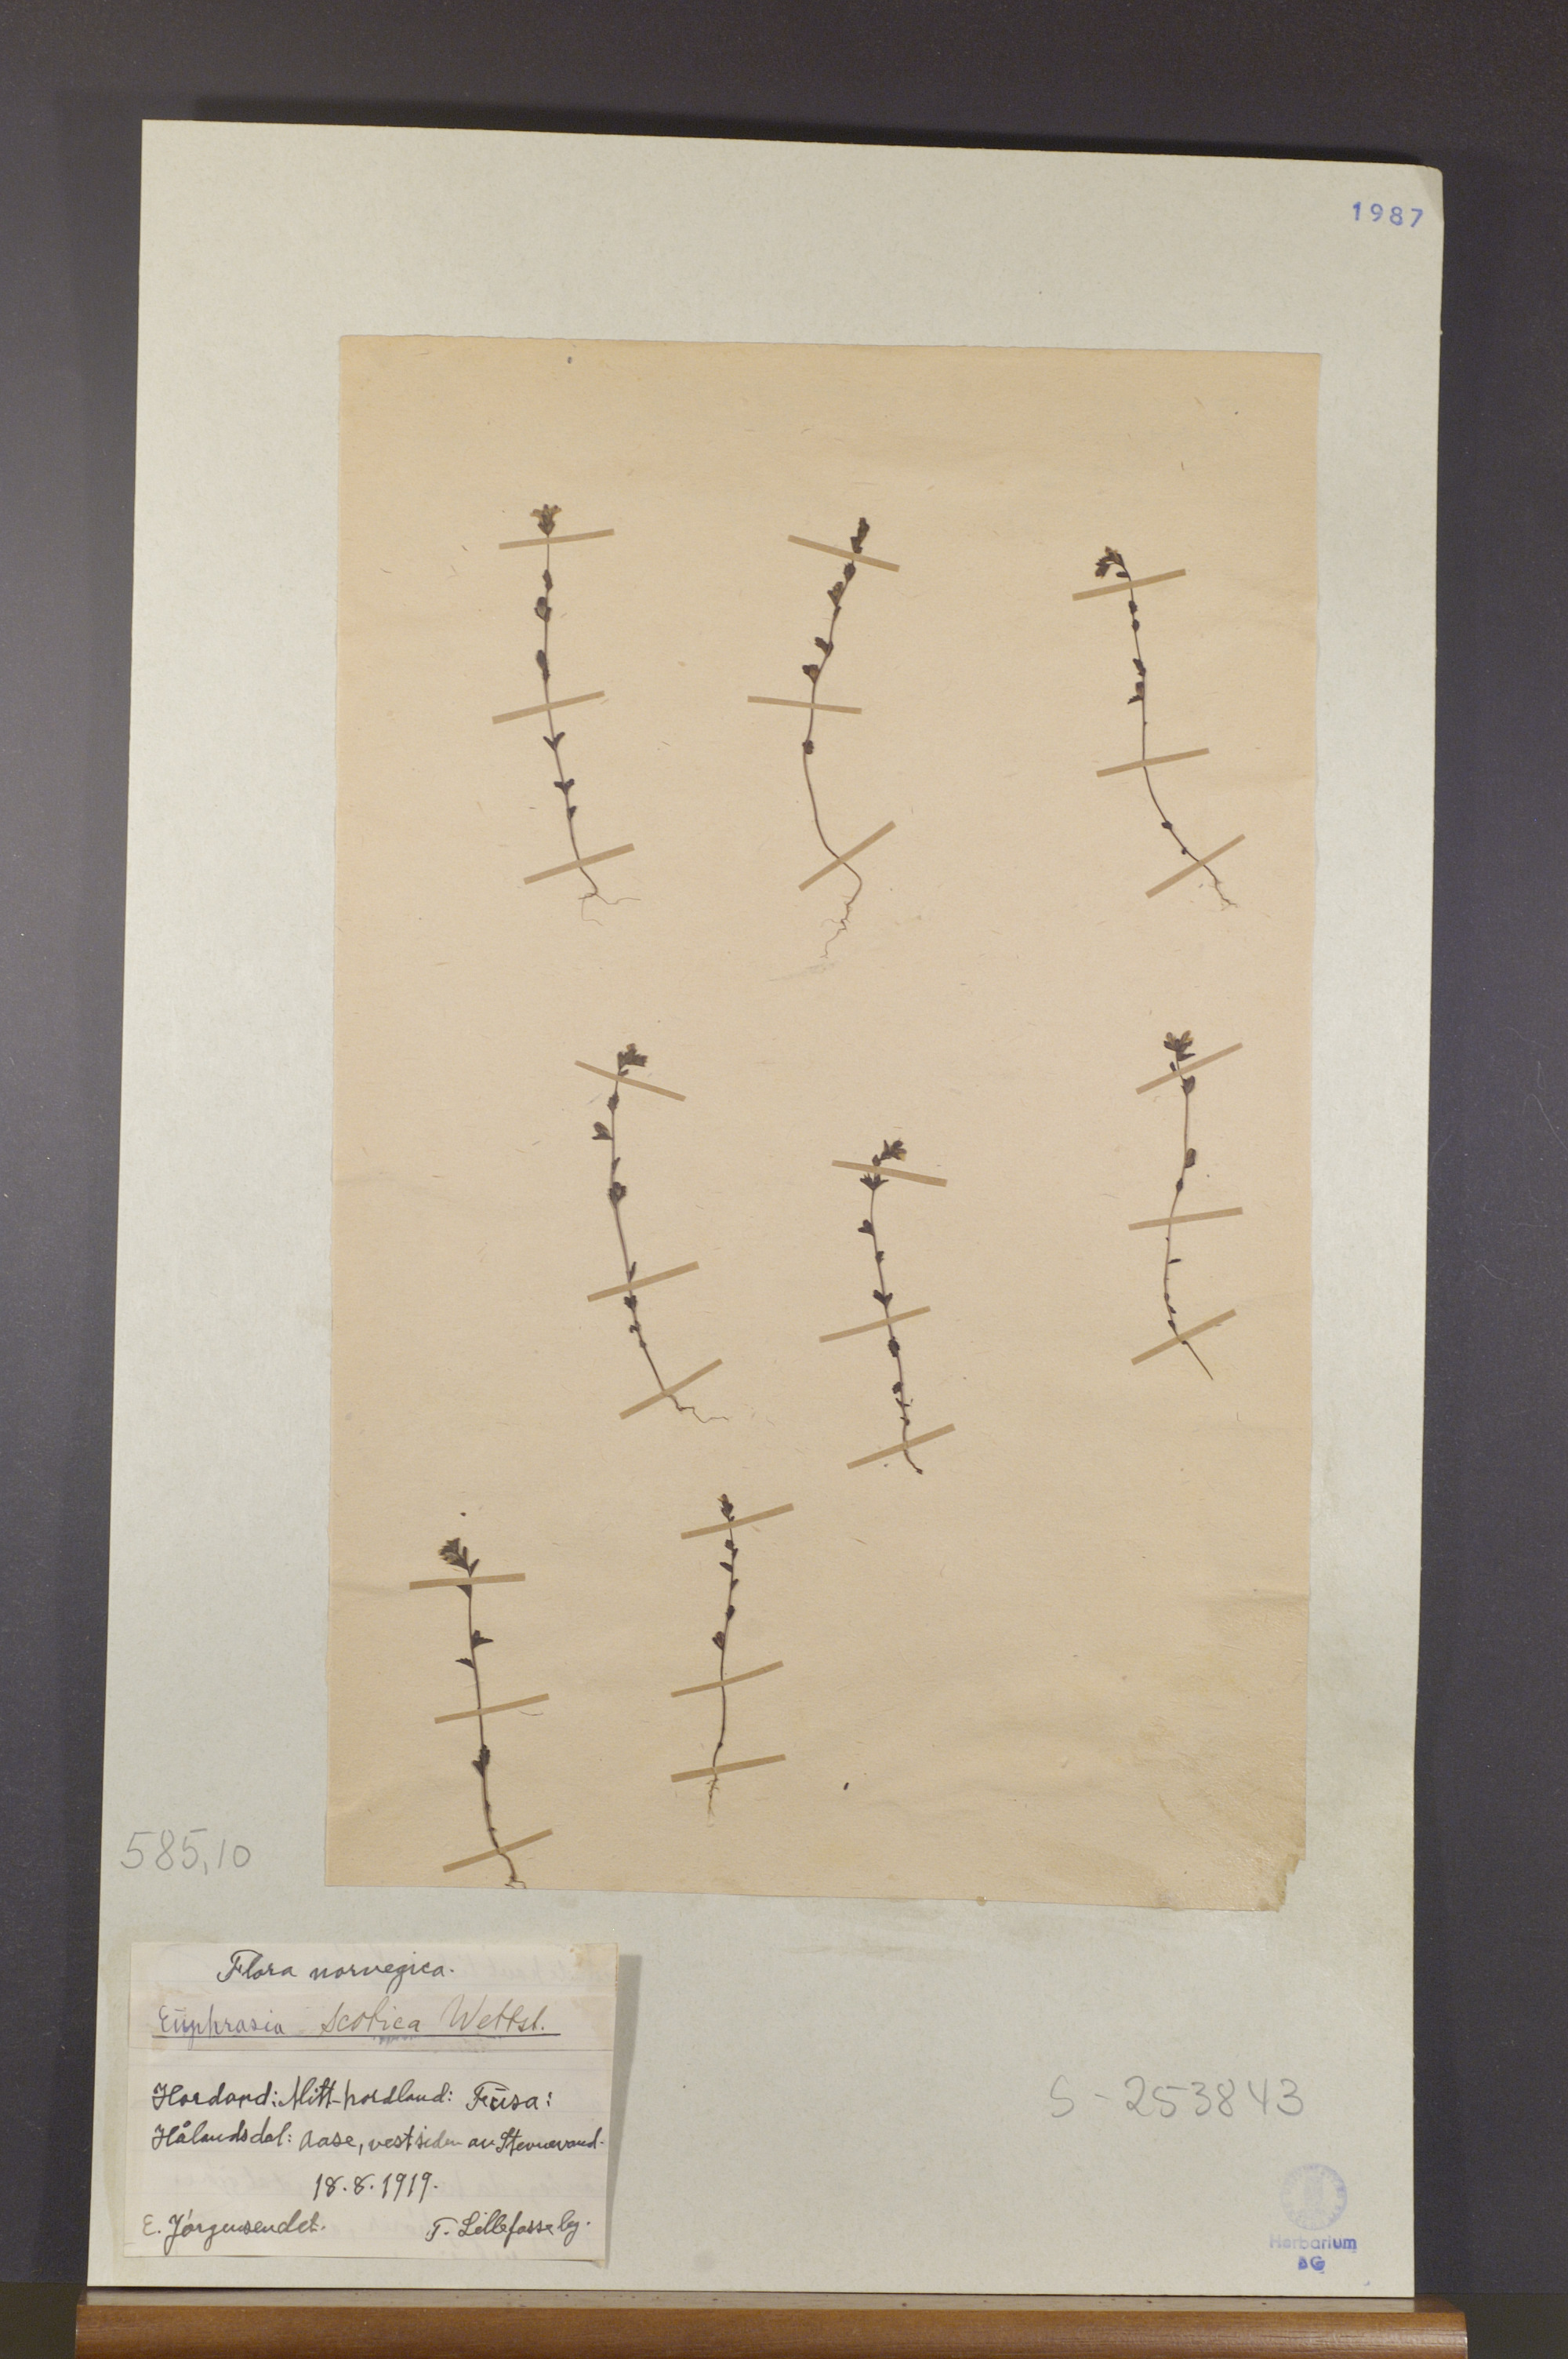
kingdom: Plantae
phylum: Tracheophyta
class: Magnoliopsida
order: Lamiales
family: Orobanchaceae
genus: Euphrasia
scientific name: Euphrasia scottica
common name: Slender scottish eyebright
